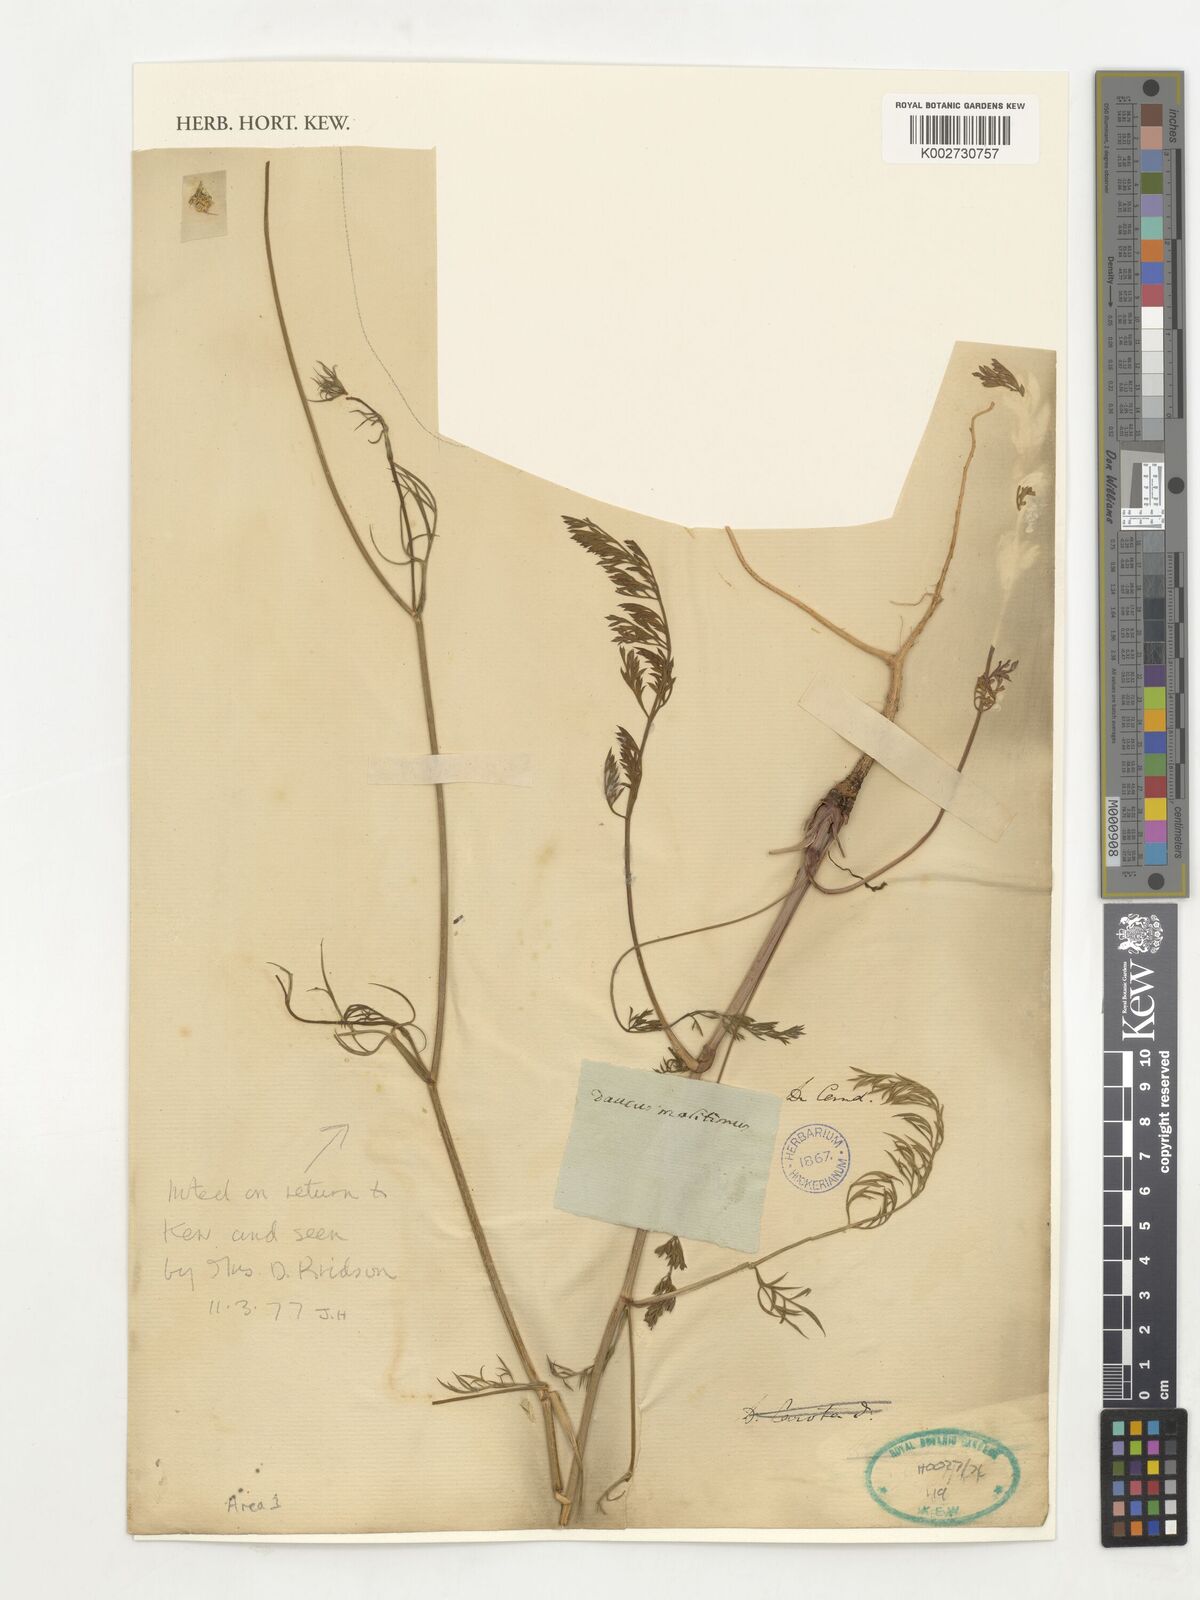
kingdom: Plantae
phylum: Tracheophyta
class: Magnoliopsida
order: Apiales
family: Apiaceae
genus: Daucus
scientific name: Daucus carota
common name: Wild carrot
